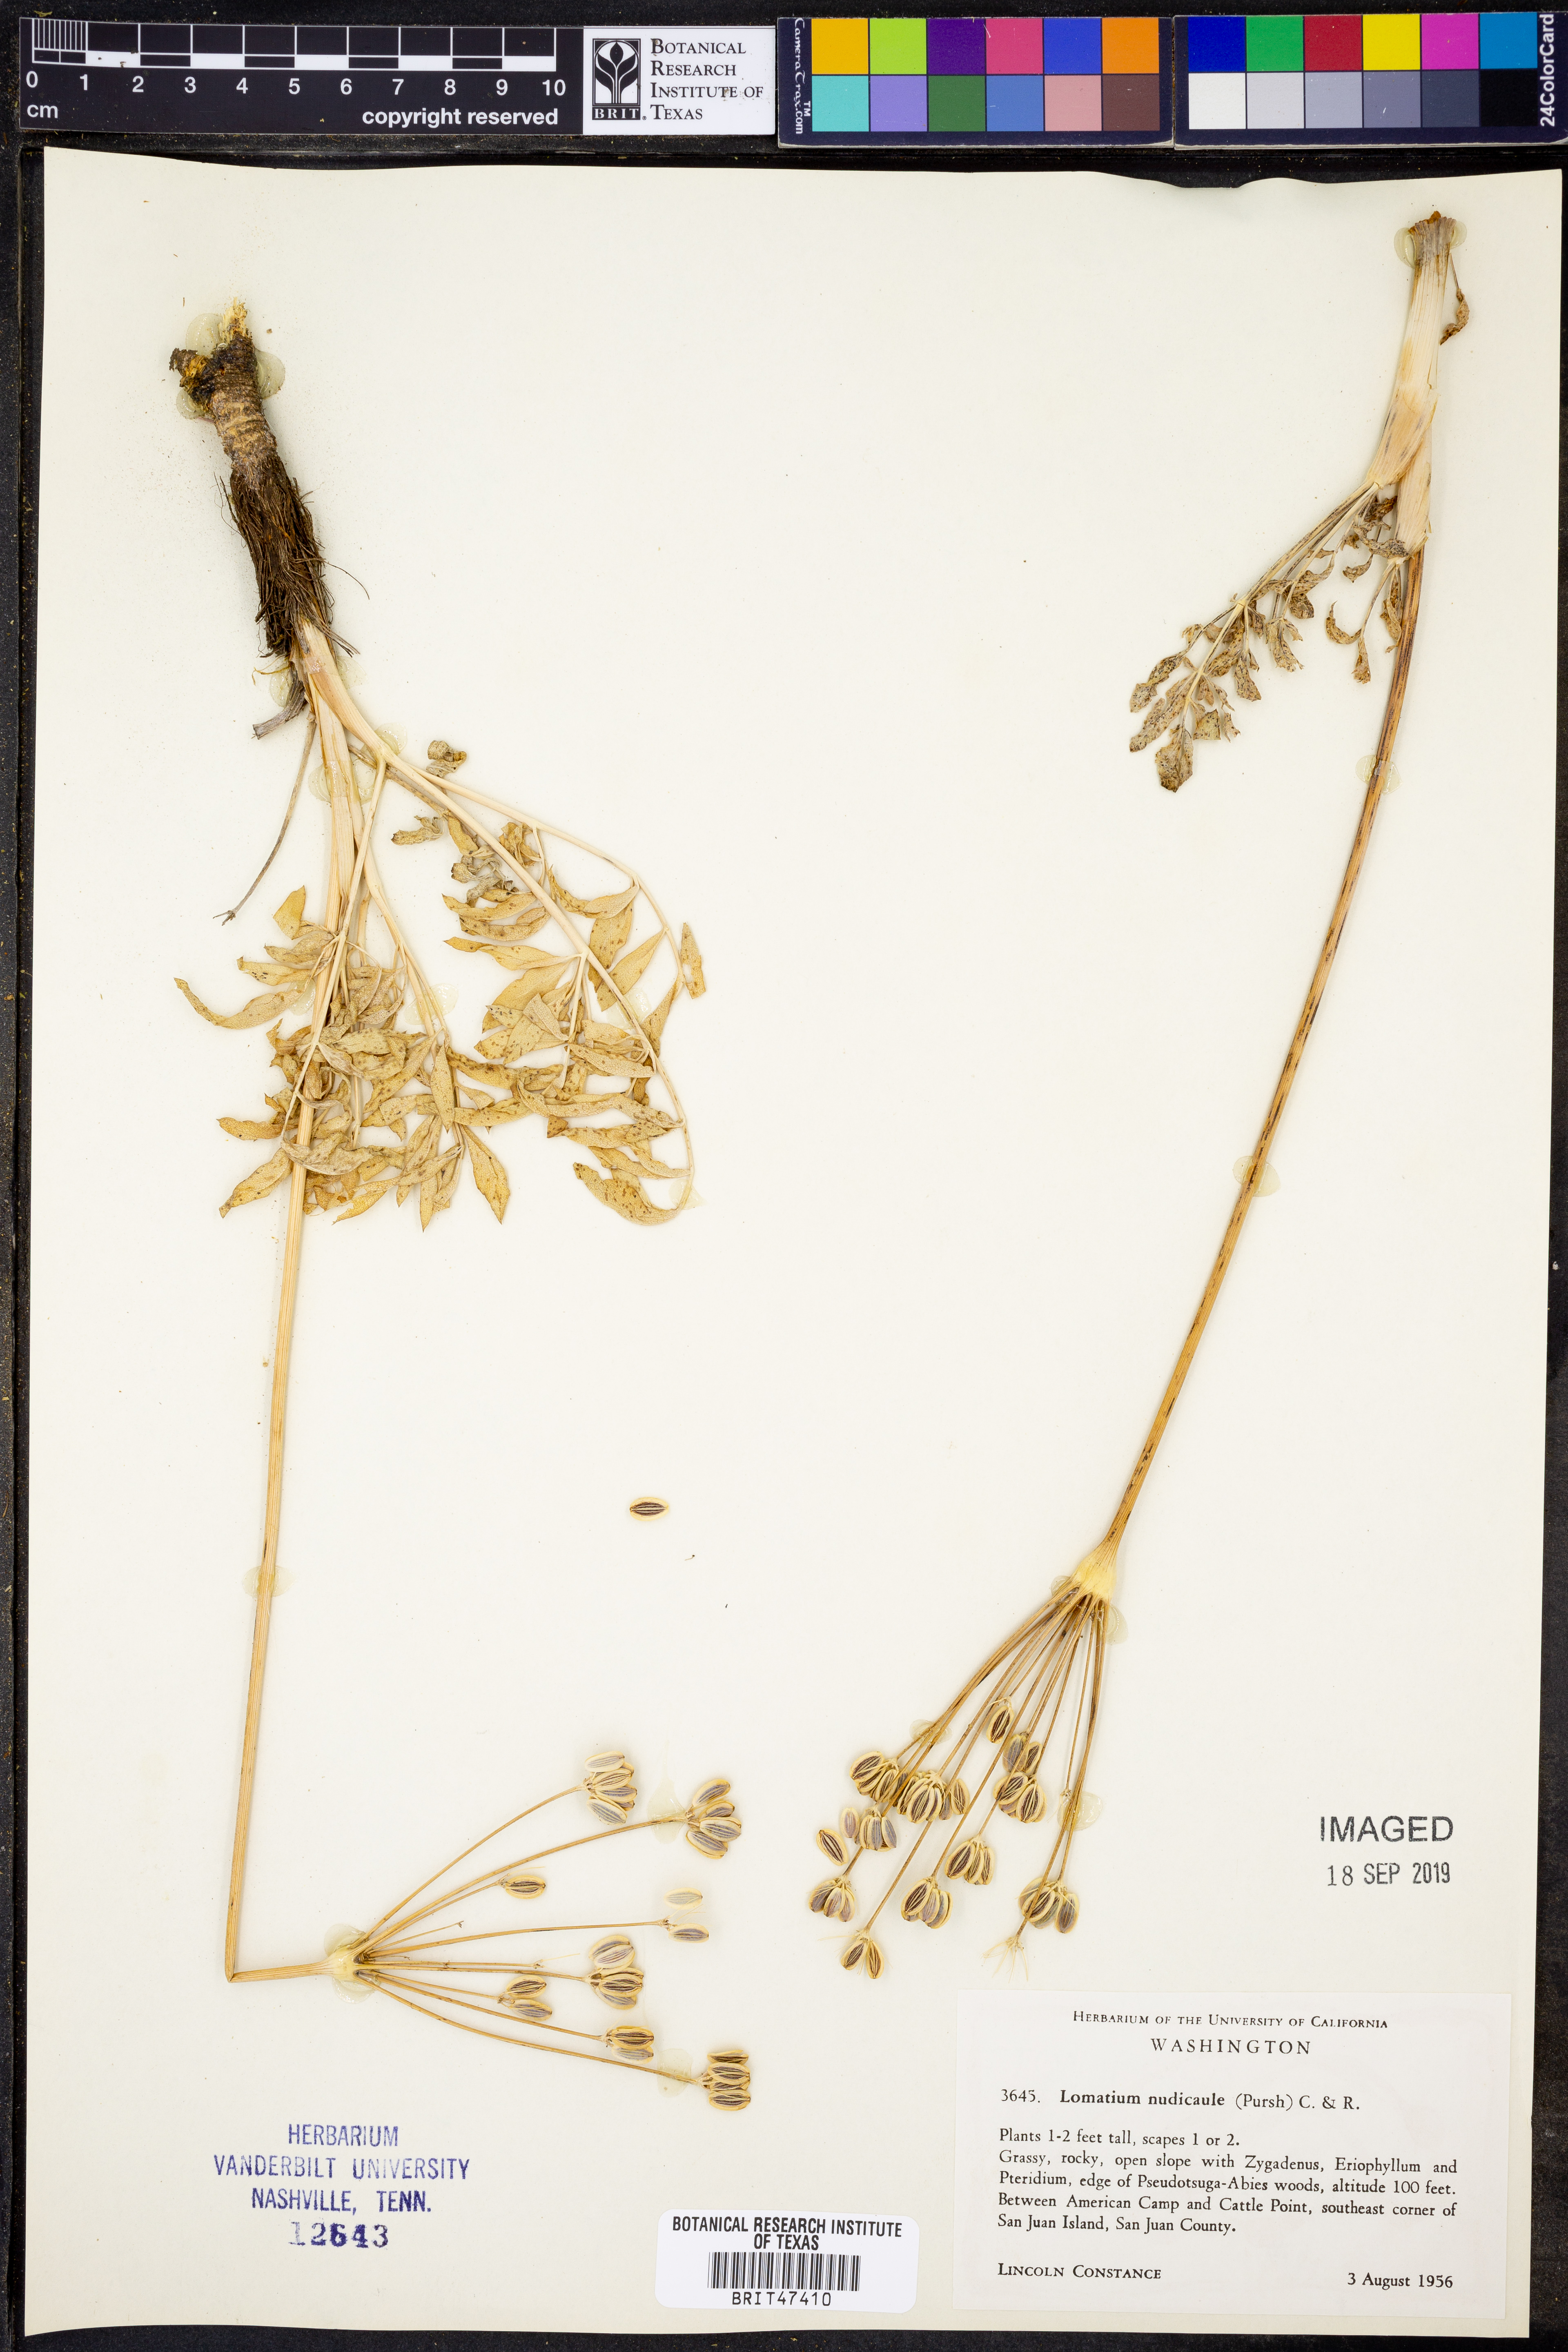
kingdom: Plantae
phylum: Tracheophyta
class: Magnoliopsida
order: Apiales
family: Apiaceae
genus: Lomatium
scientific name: Lomatium nudicaule
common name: Pestle lomatium
